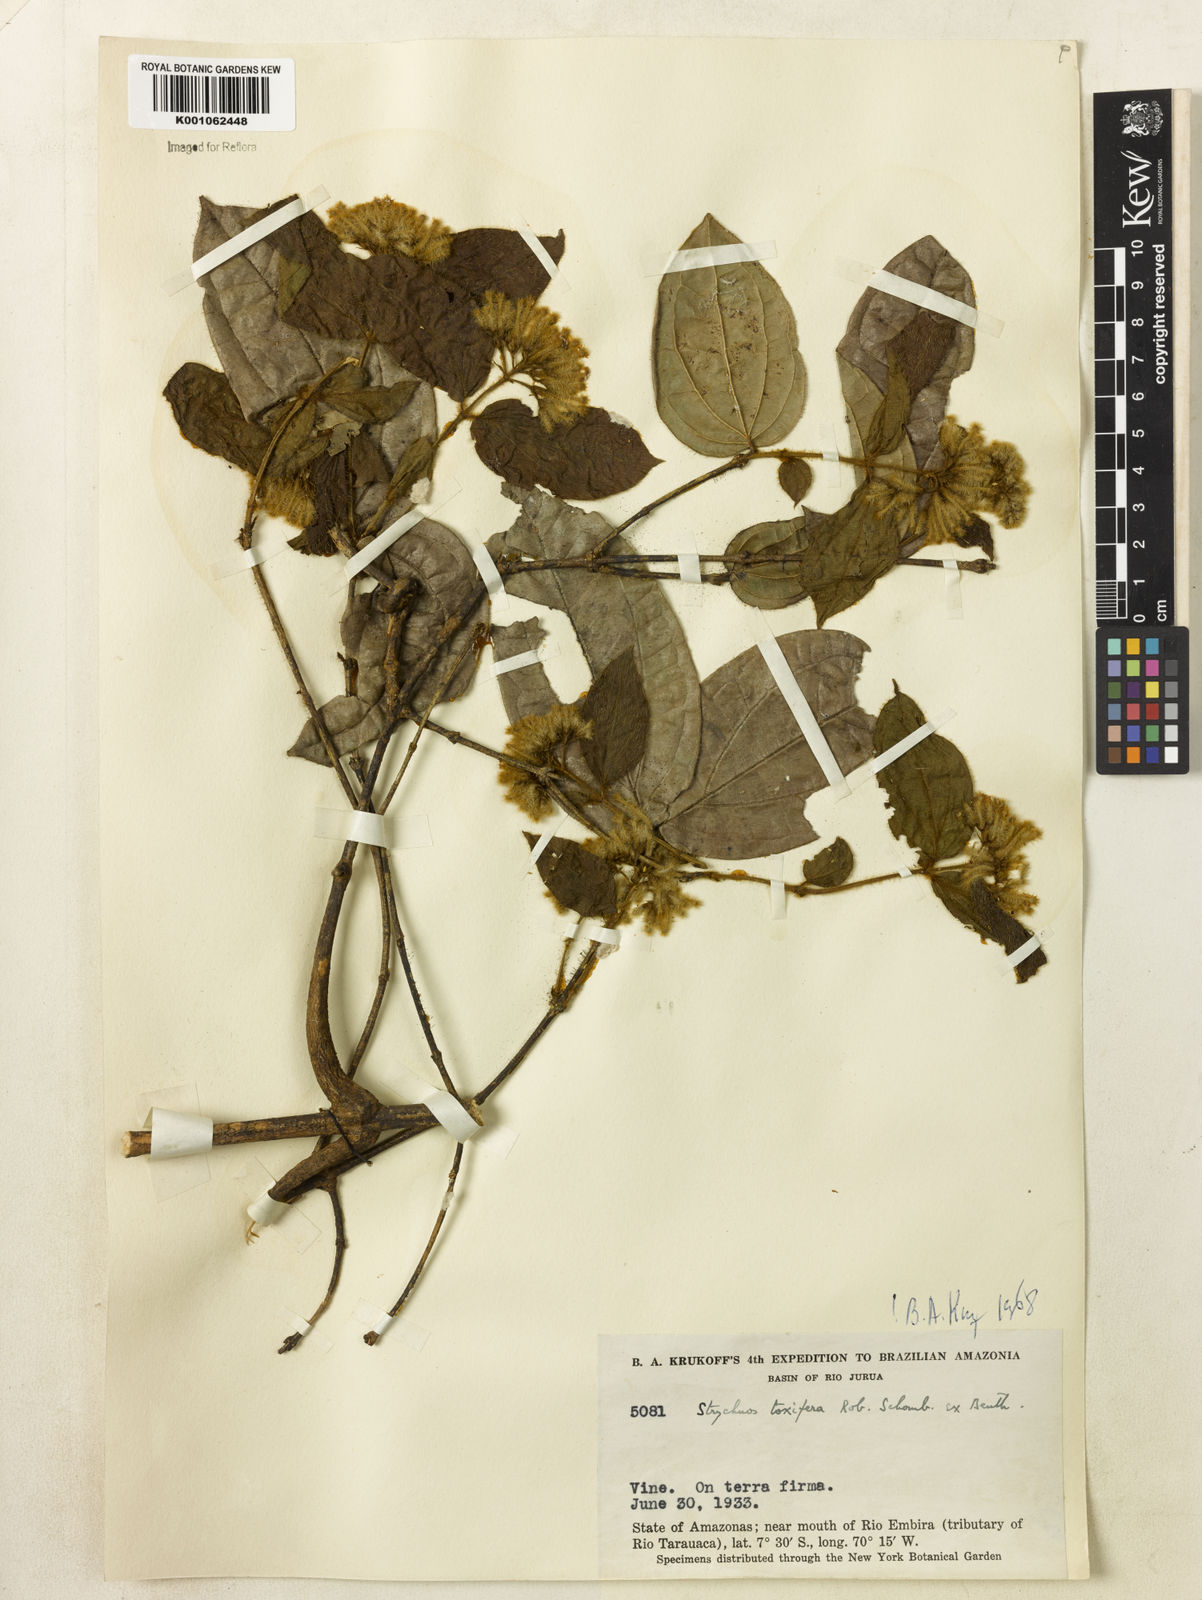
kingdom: Plantae
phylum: Tracheophyta
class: Magnoliopsida
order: Gentianales
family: Loganiaceae
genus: Strychnos
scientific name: Strychnos
